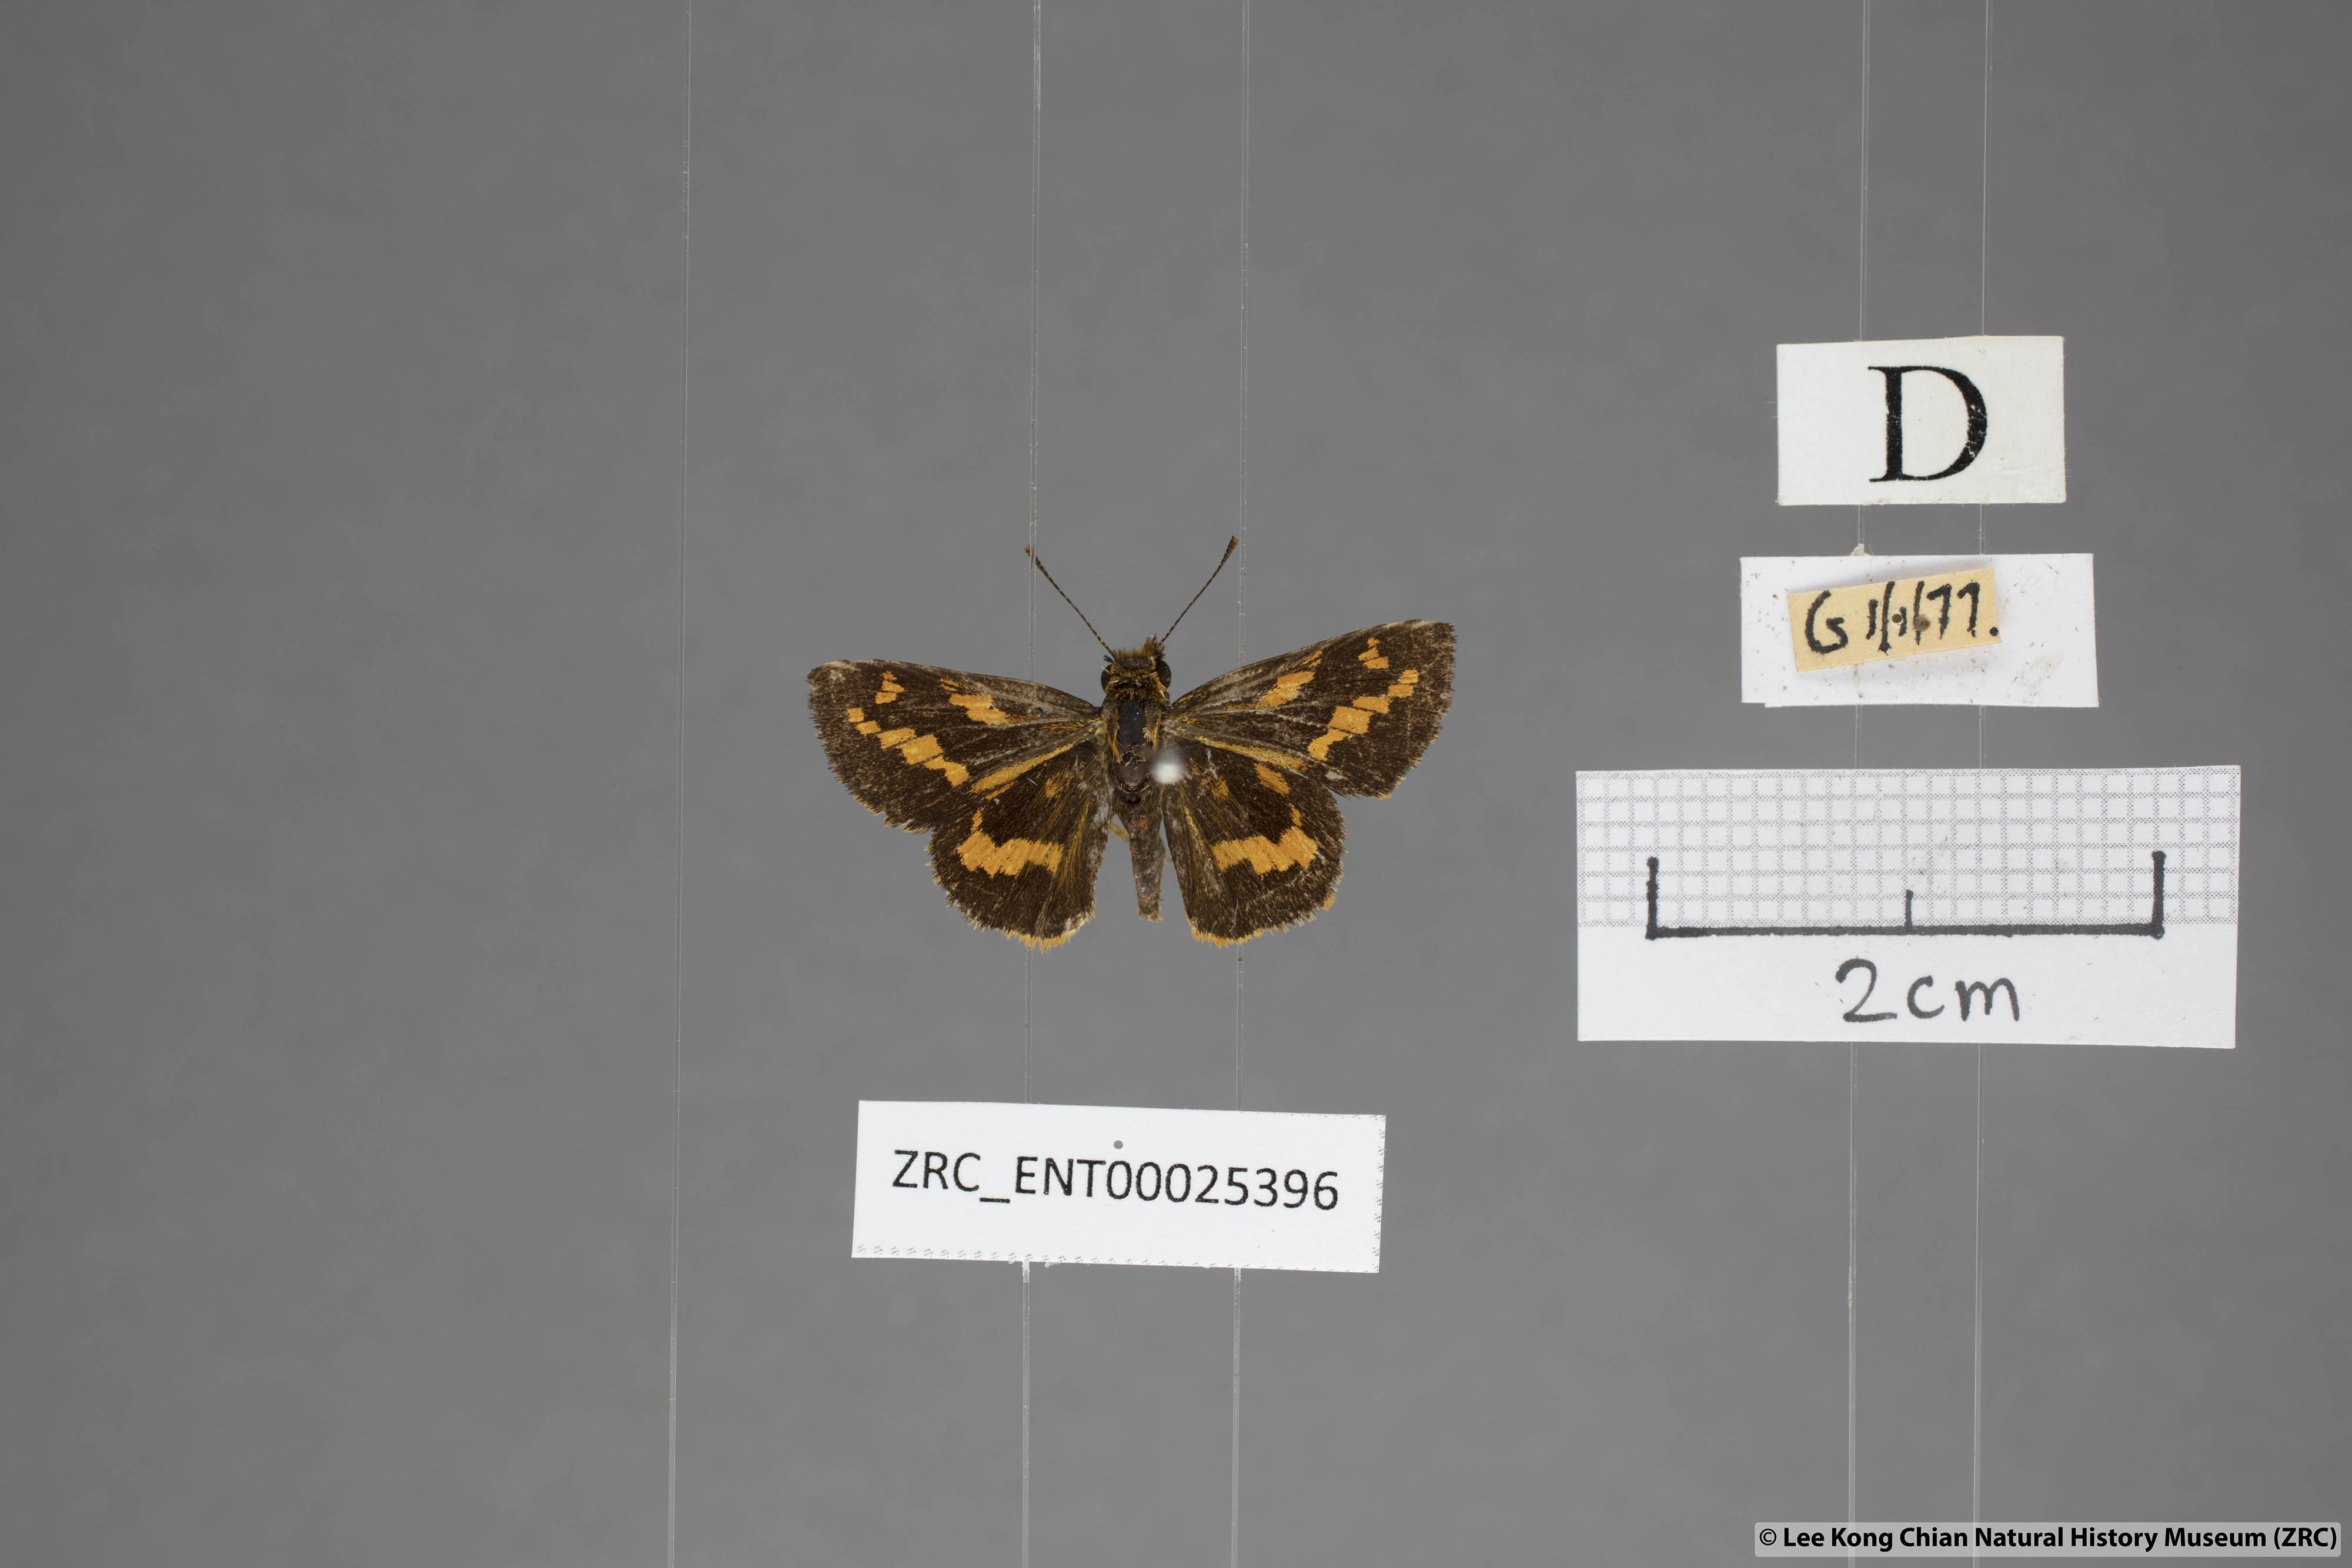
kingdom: Animalia
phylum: Arthropoda
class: Insecta
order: Lepidoptera
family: Hesperiidae
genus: Potanthus
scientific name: Potanthus ganda
